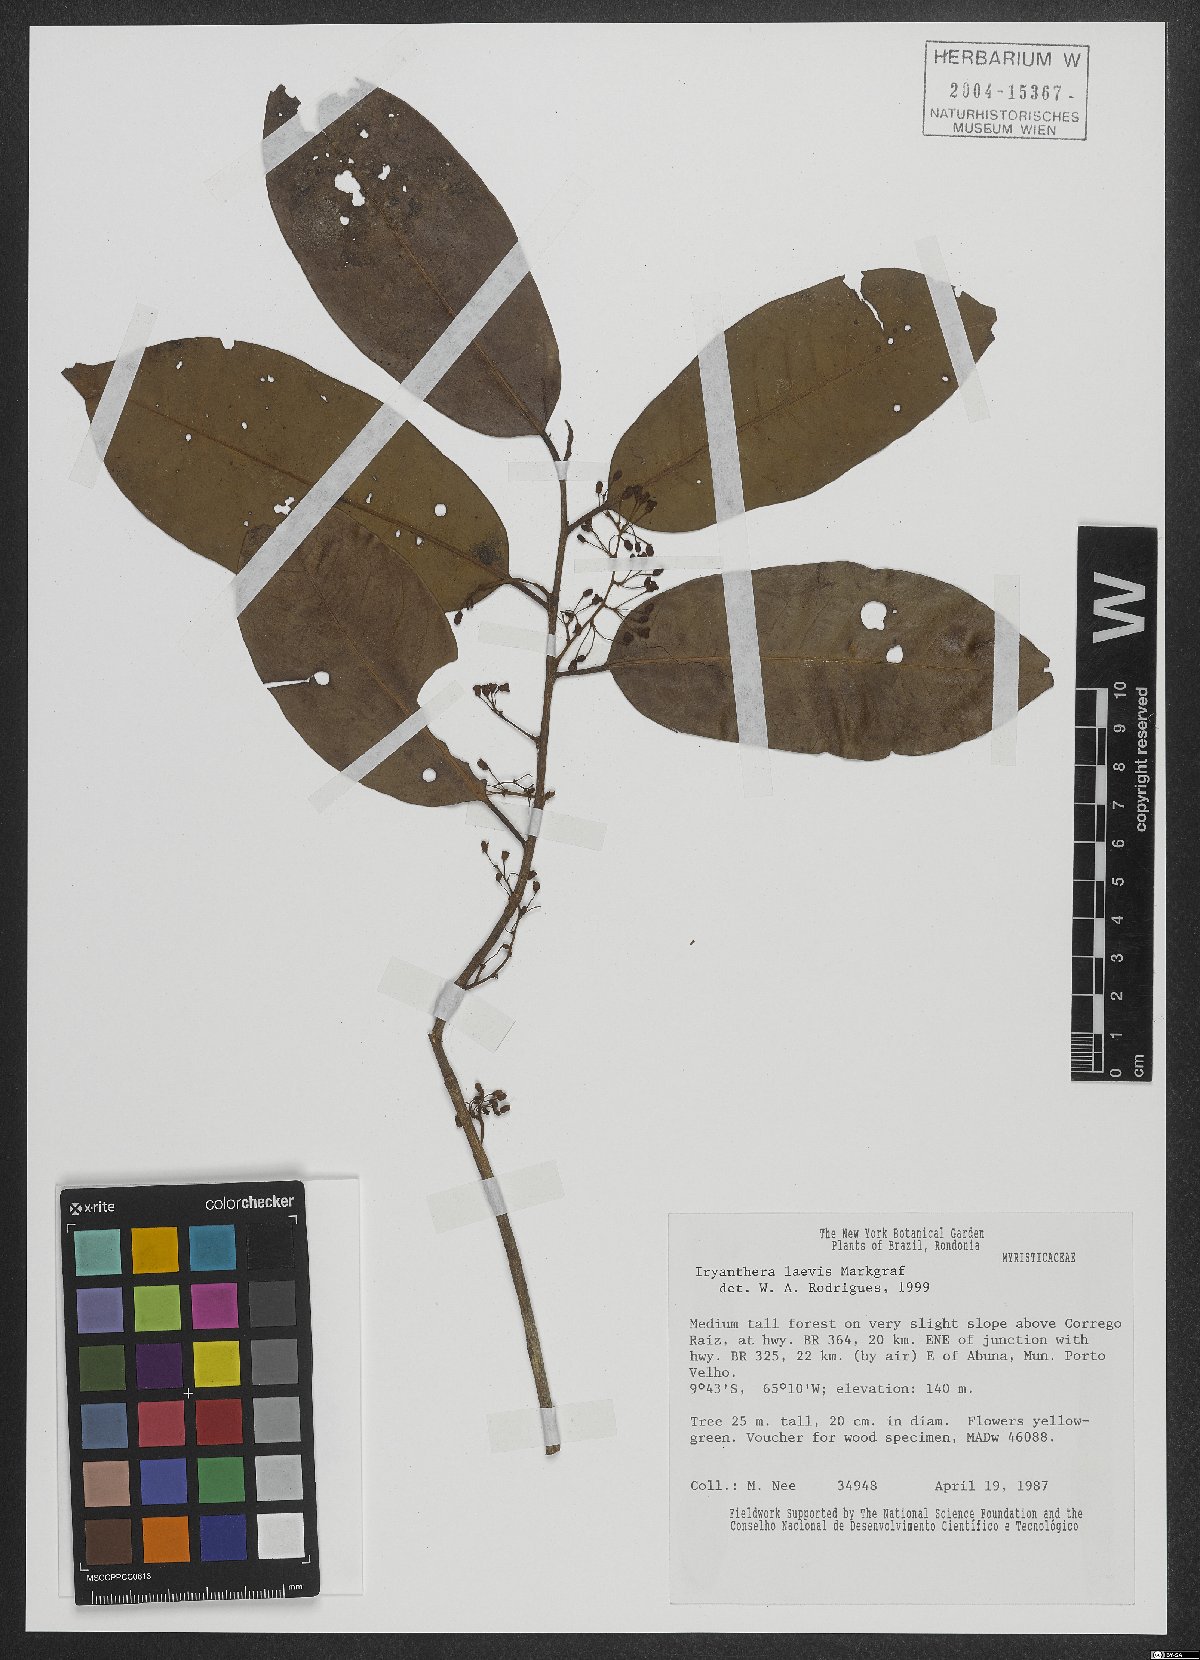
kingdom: Plantae
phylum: Tracheophyta
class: Magnoliopsida
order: Magnoliales
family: Myristicaceae
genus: Iryanthera
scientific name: Iryanthera juruensis
